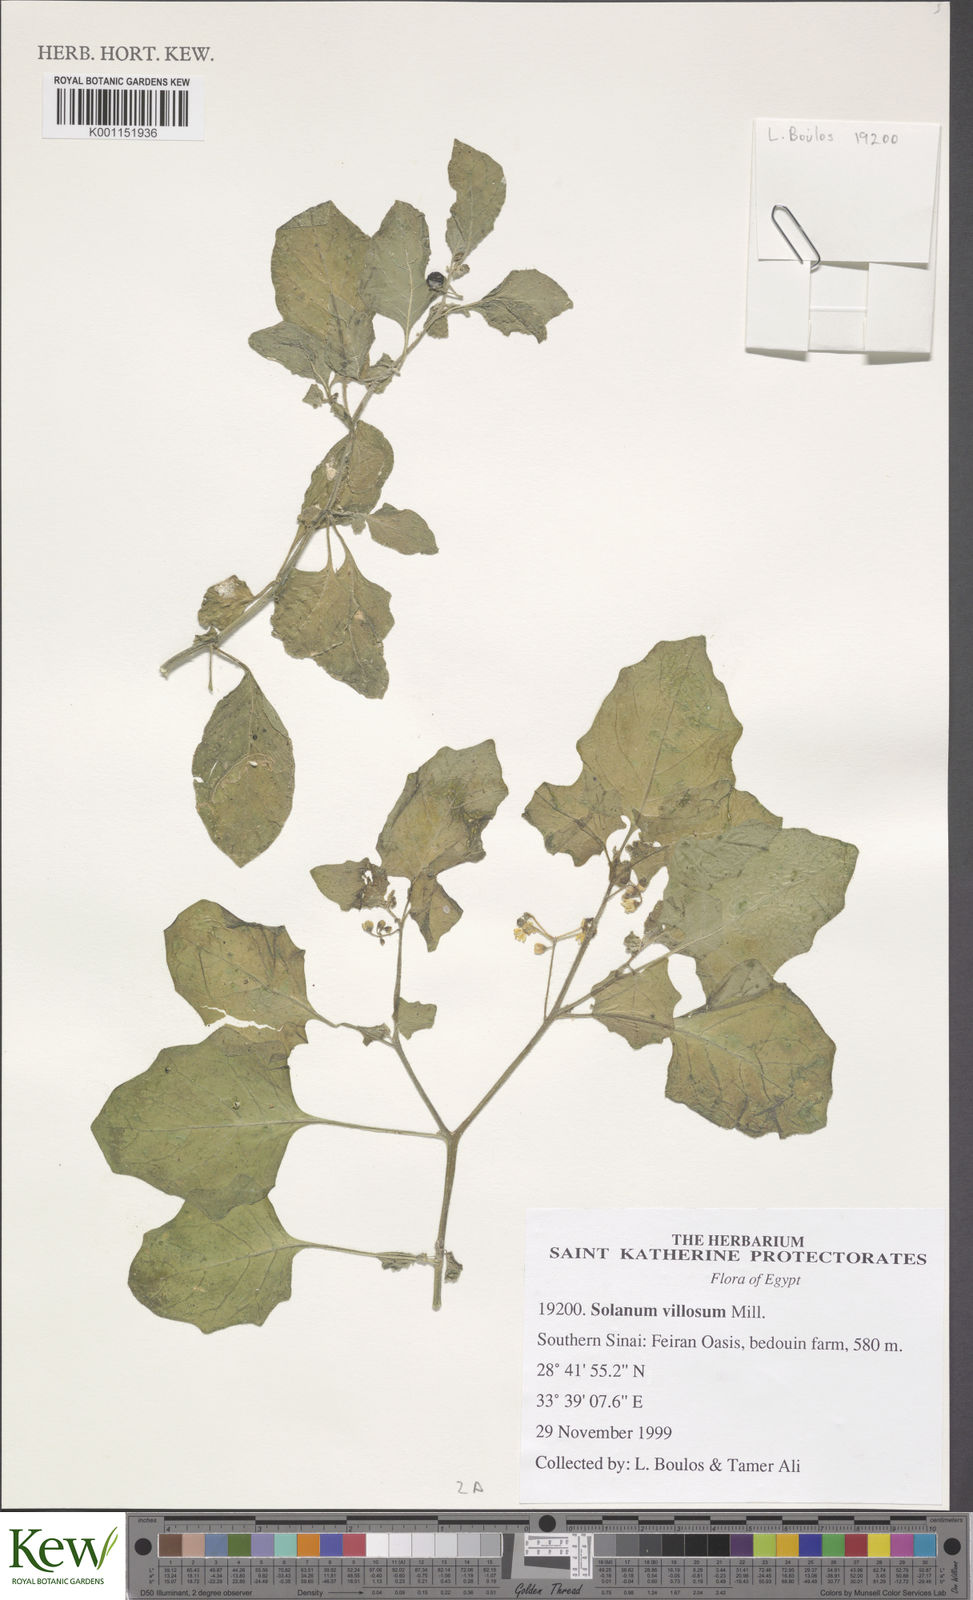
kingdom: Plantae
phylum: Tracheophyta
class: Magnoliopsida
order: Solanales
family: Solanaceae
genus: Solanum
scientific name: Solanum
